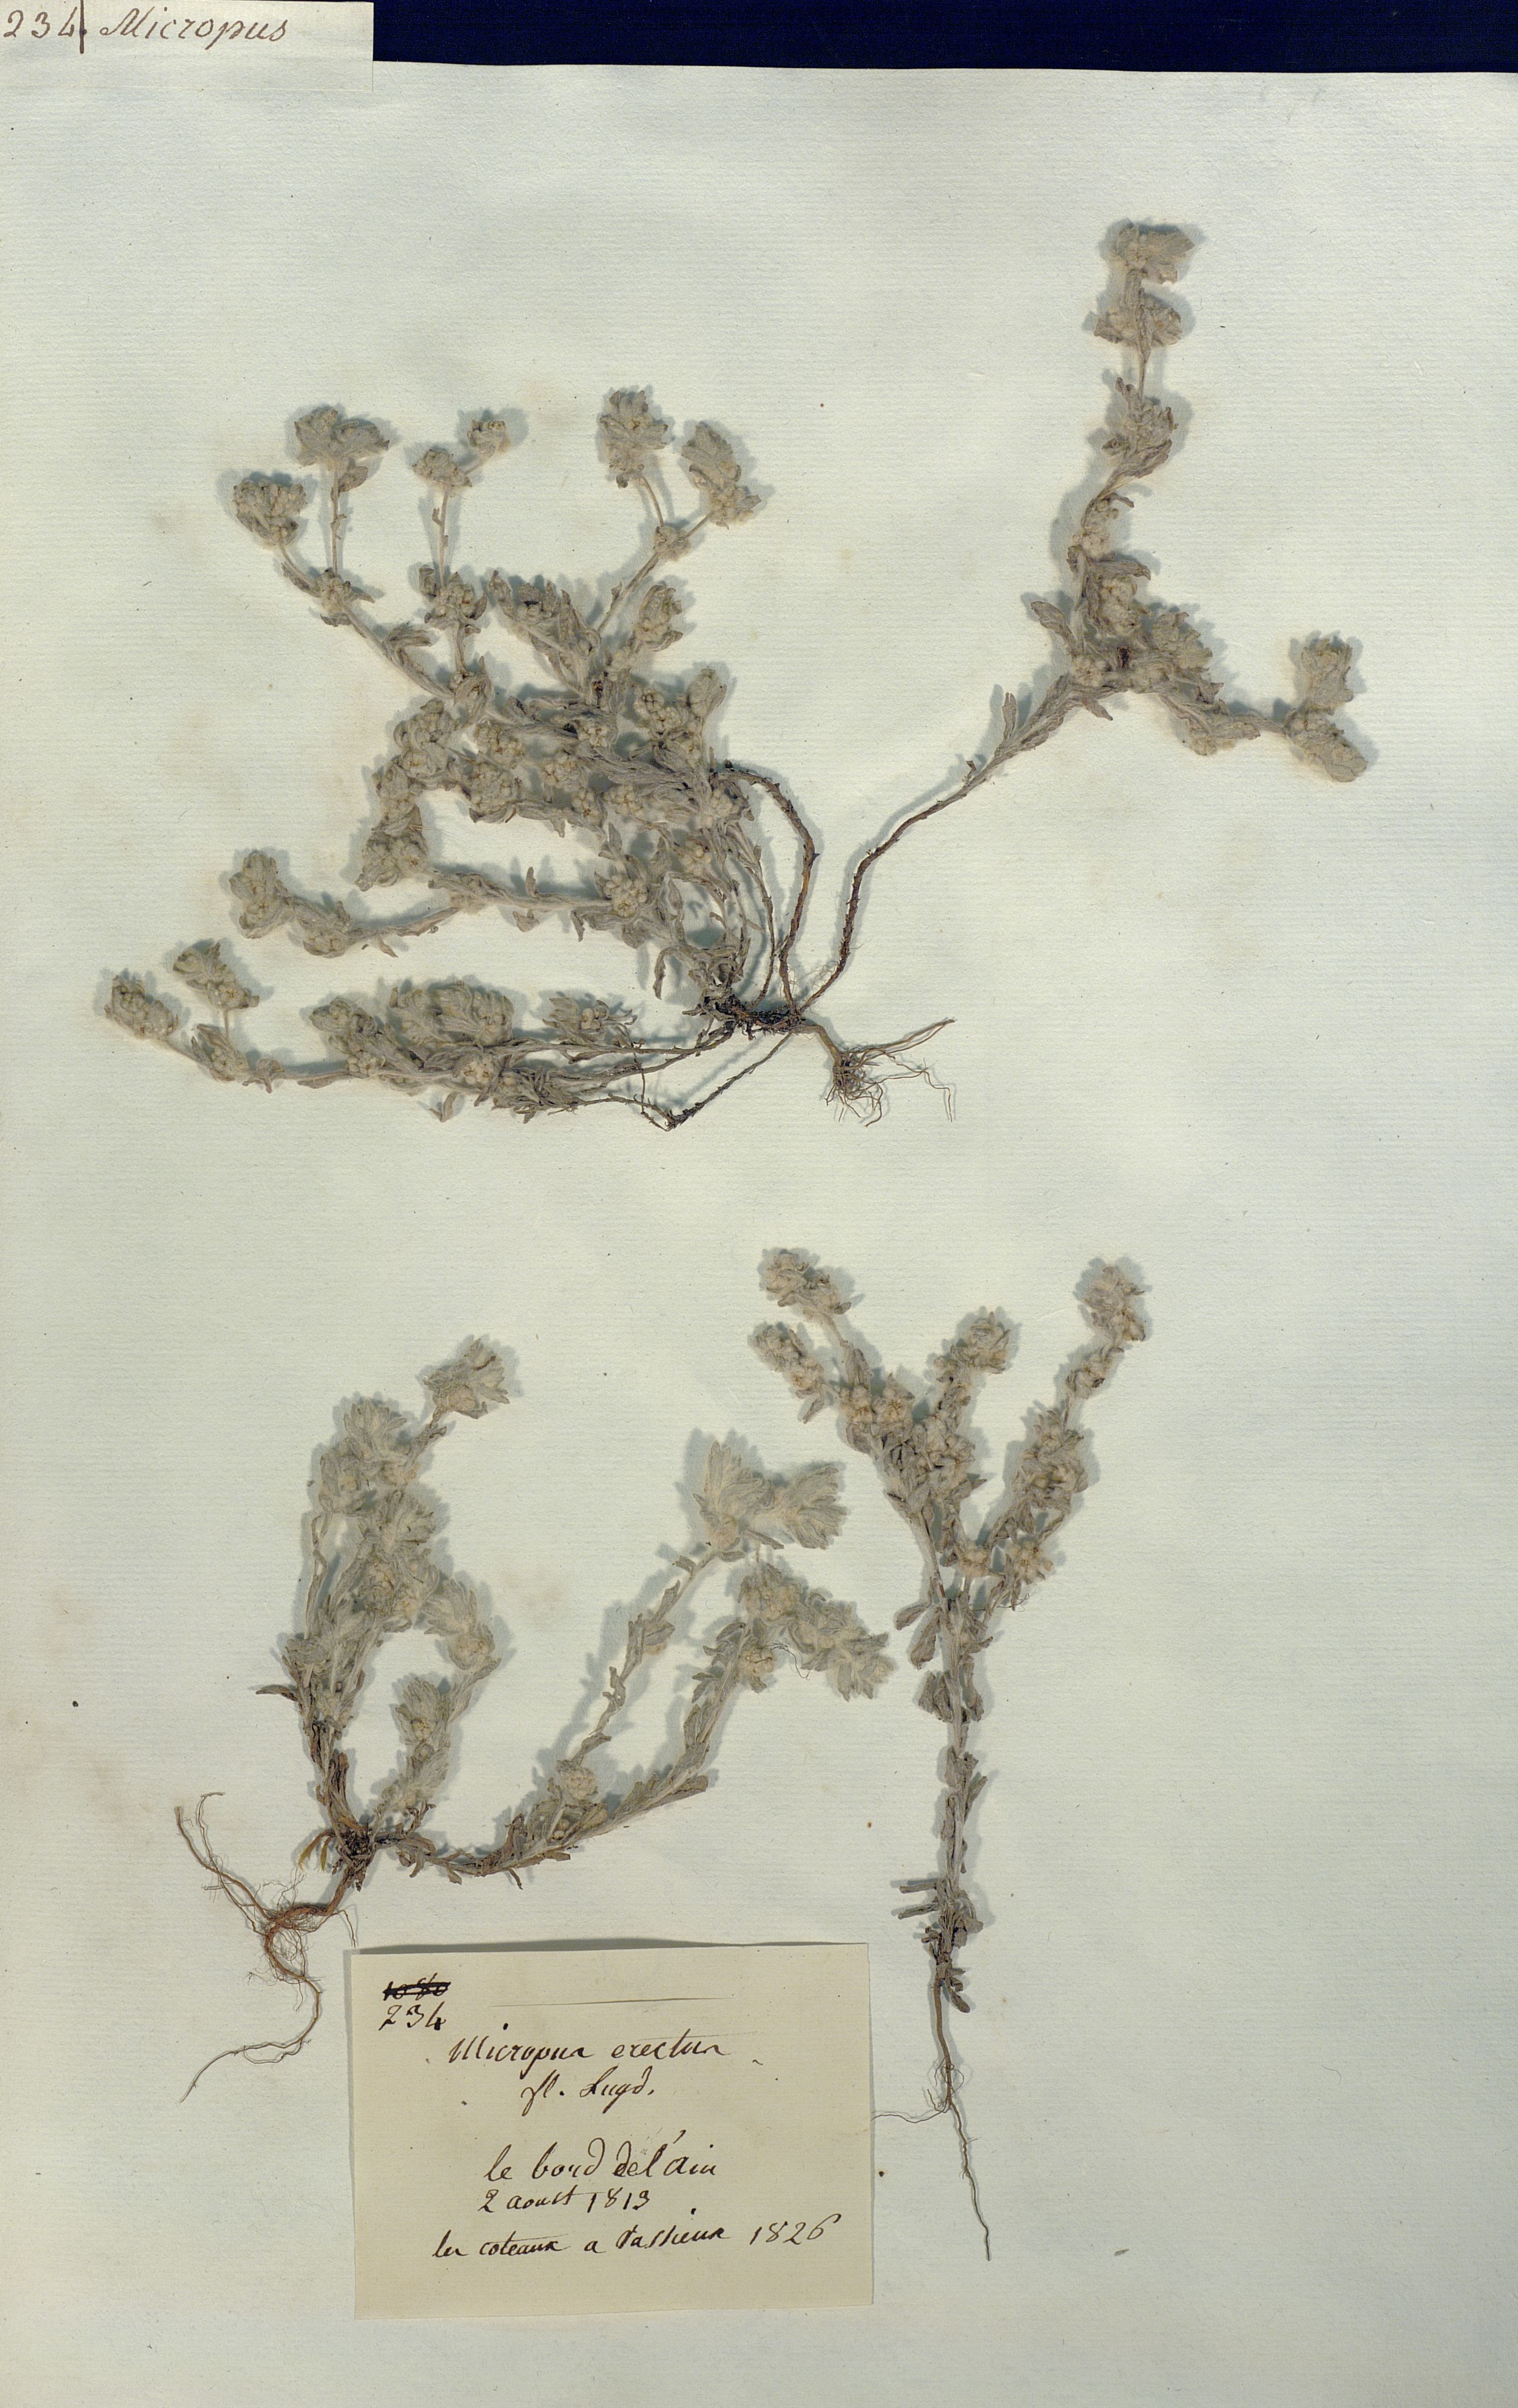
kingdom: Plantae
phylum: Tracheophyta
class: Magnoliopsida
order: Asterales
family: Asteraceae
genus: Bombycilaena
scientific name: Bombycilaena
